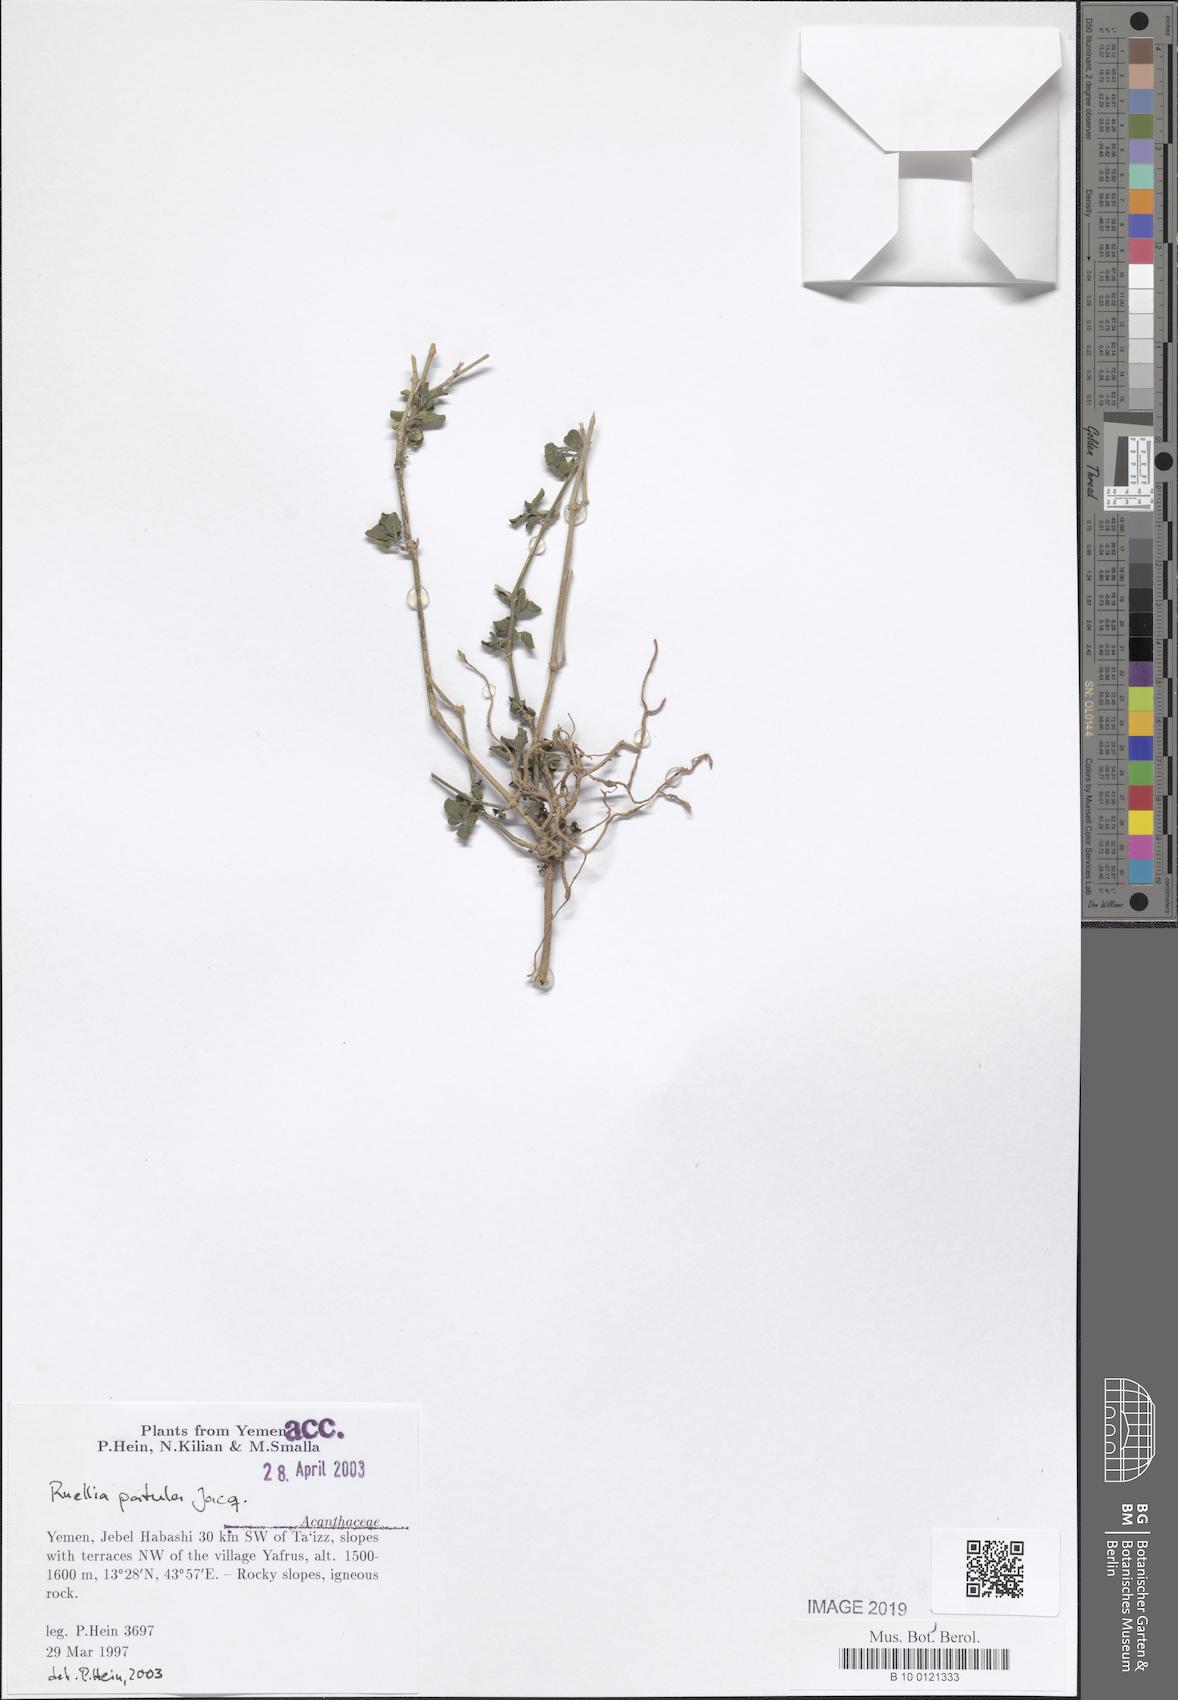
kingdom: Plantae
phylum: Tracheophyta
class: Magnoliopsida
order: Lamiales
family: Acanthaceae
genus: Ruellia
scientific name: Ruellia patula
